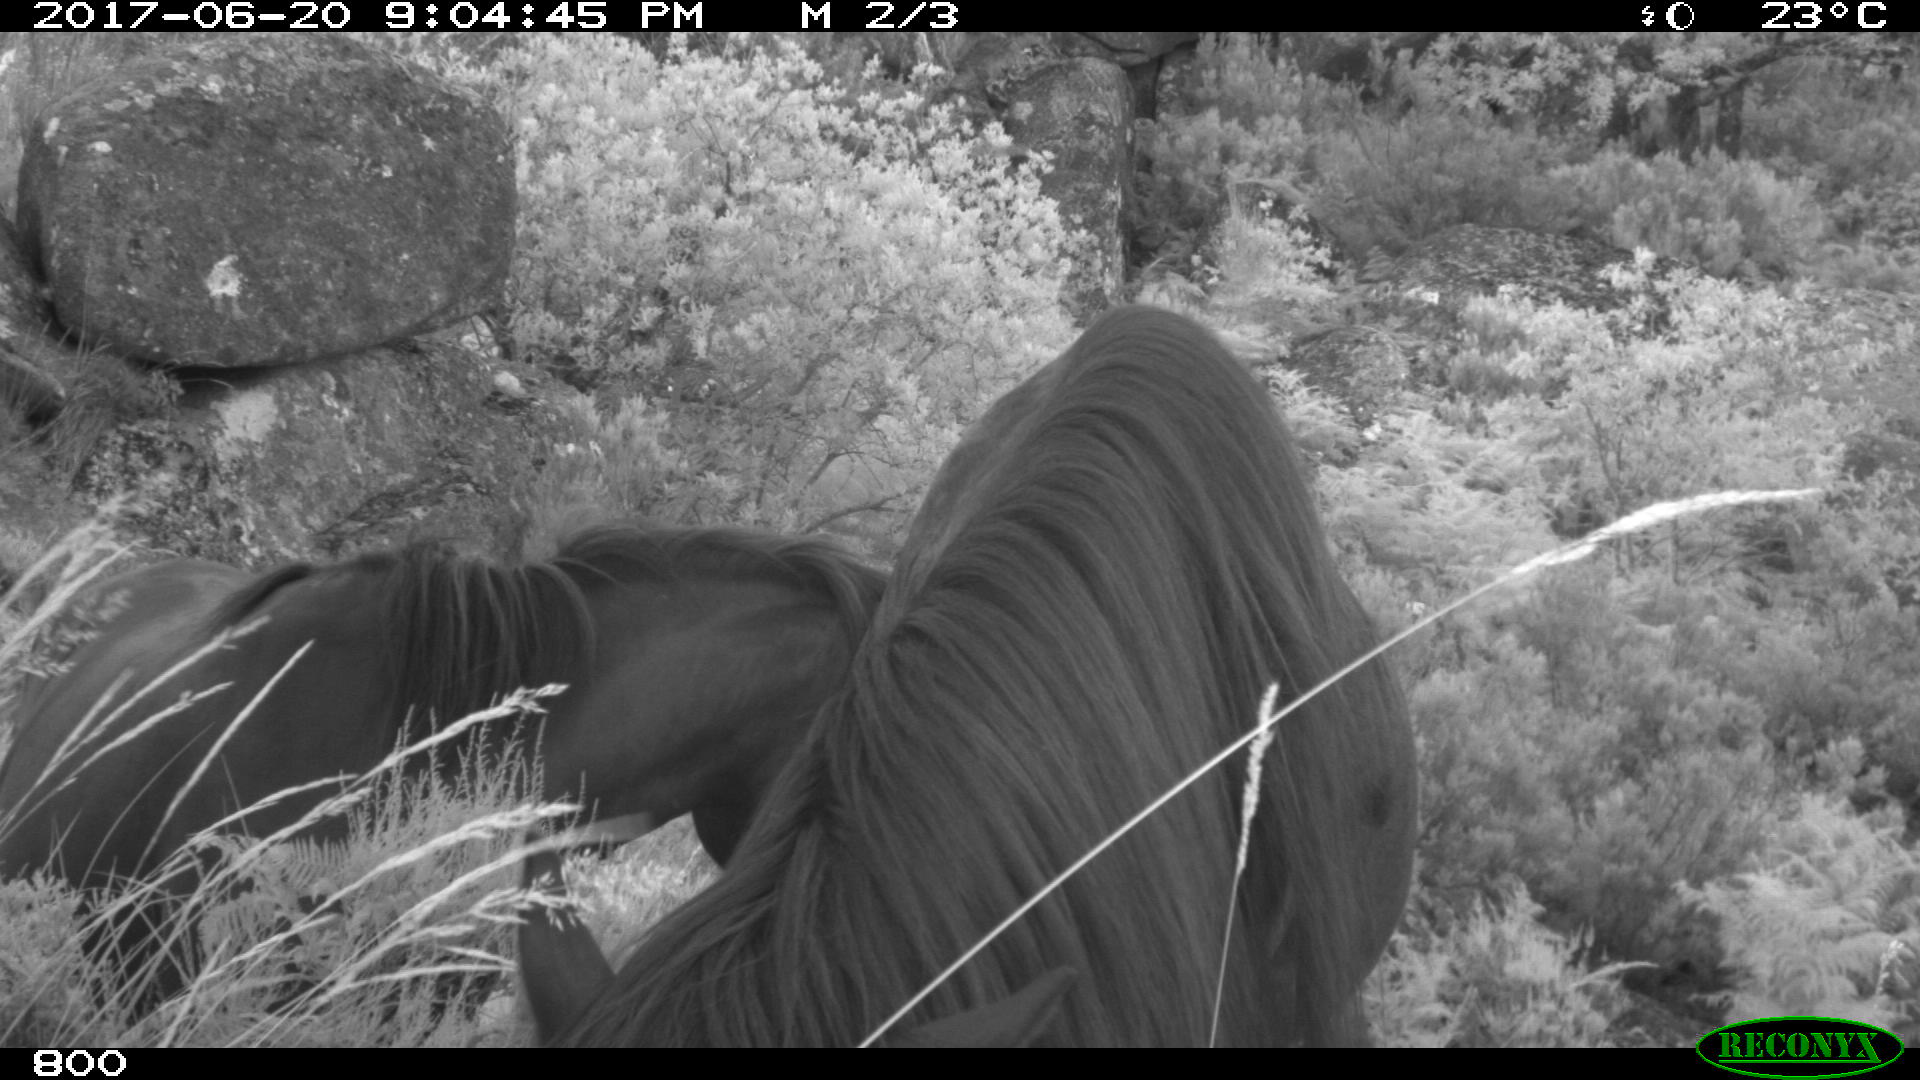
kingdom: Animalia
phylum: Chordata
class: Mammalia
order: Perissodactyla
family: Equidae
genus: Equus
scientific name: Equus caballus
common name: Horse
